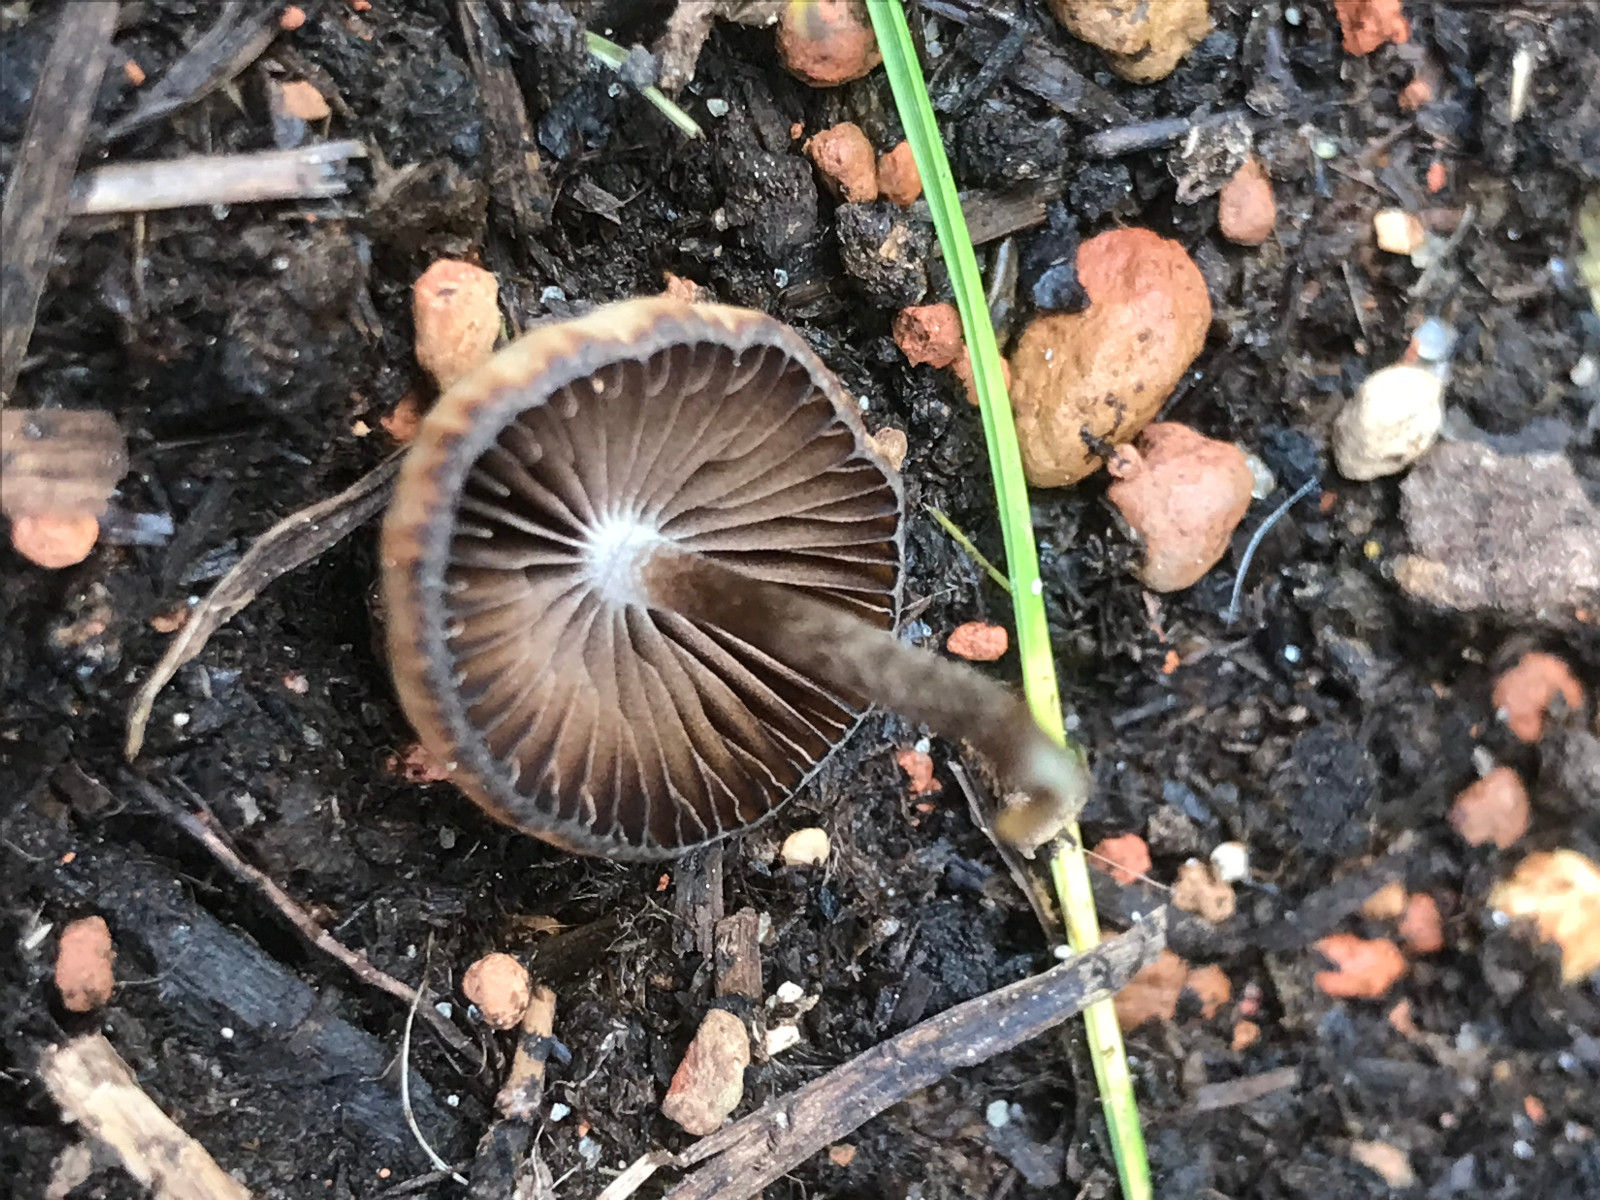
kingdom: Fungi
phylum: Basidiomycota
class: Agaricomycetes
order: Agaricales
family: Psathyrellaceae
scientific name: Psathyrellaceae
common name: mørkhatfamilien
